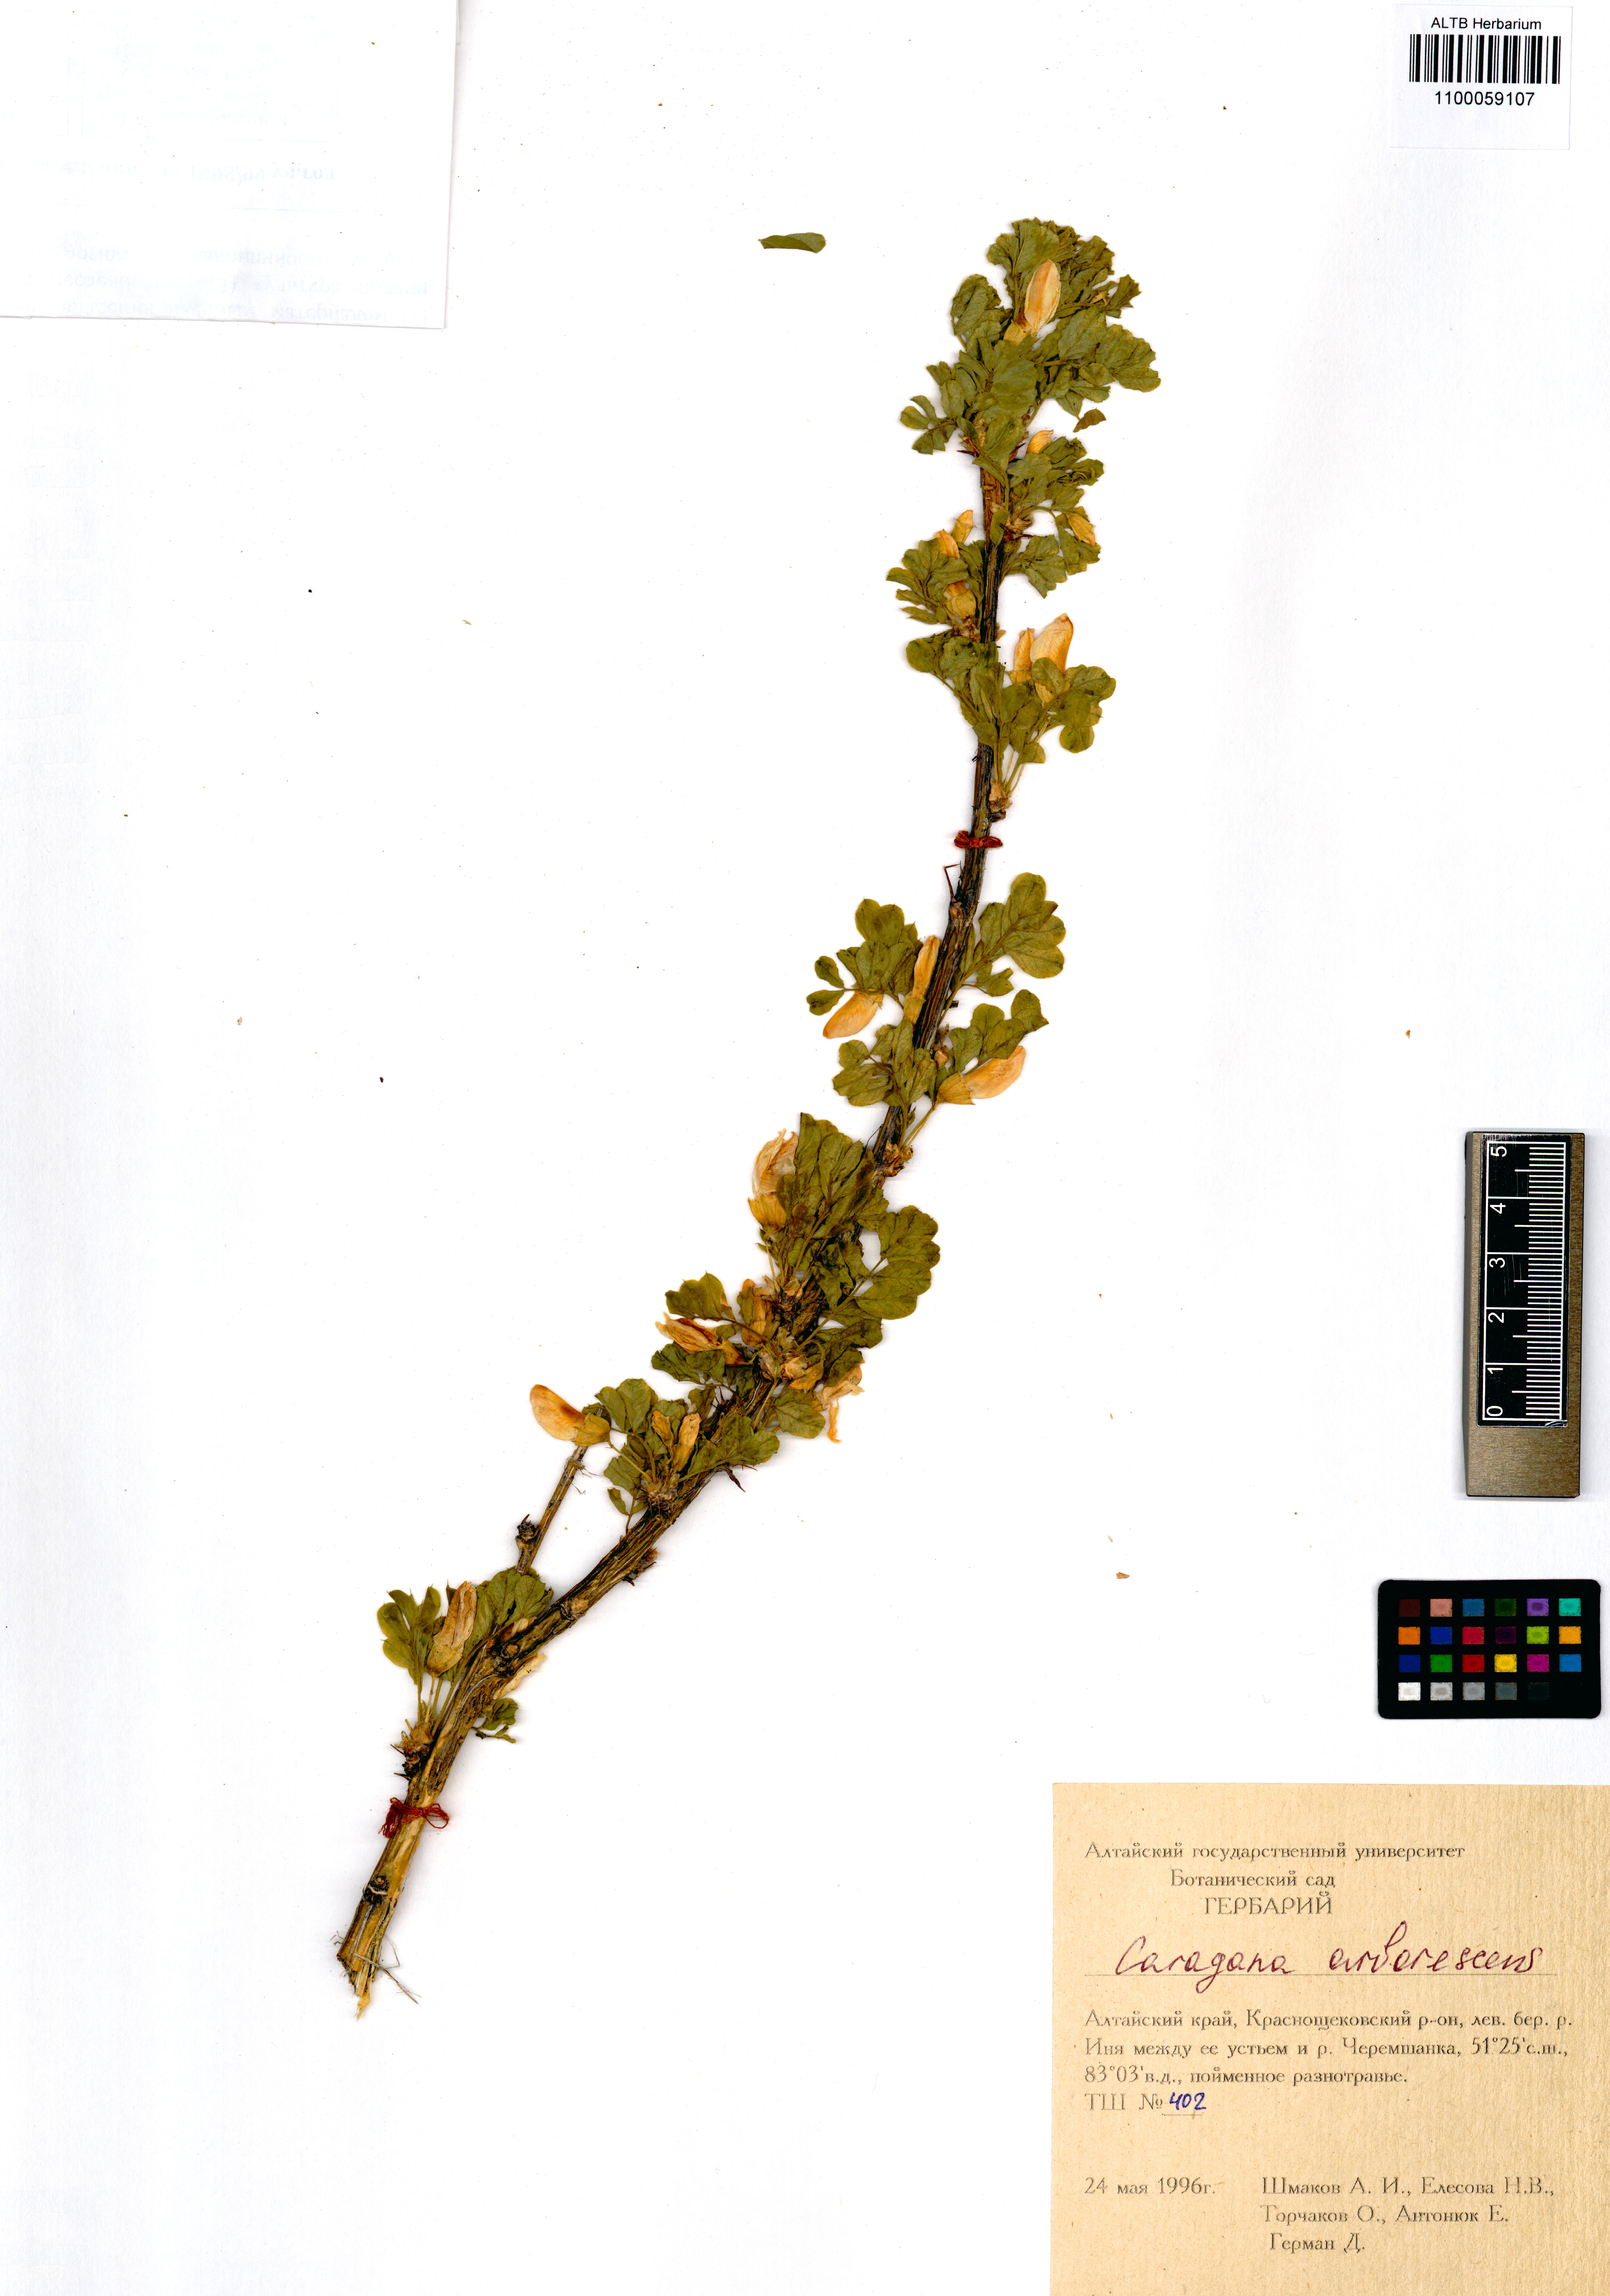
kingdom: Plantae
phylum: Tracheophyta
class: Magnoliopsida
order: Fabales
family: Fabaceae
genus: Caragana
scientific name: Caragana arborescens
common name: Siberian peashrub
